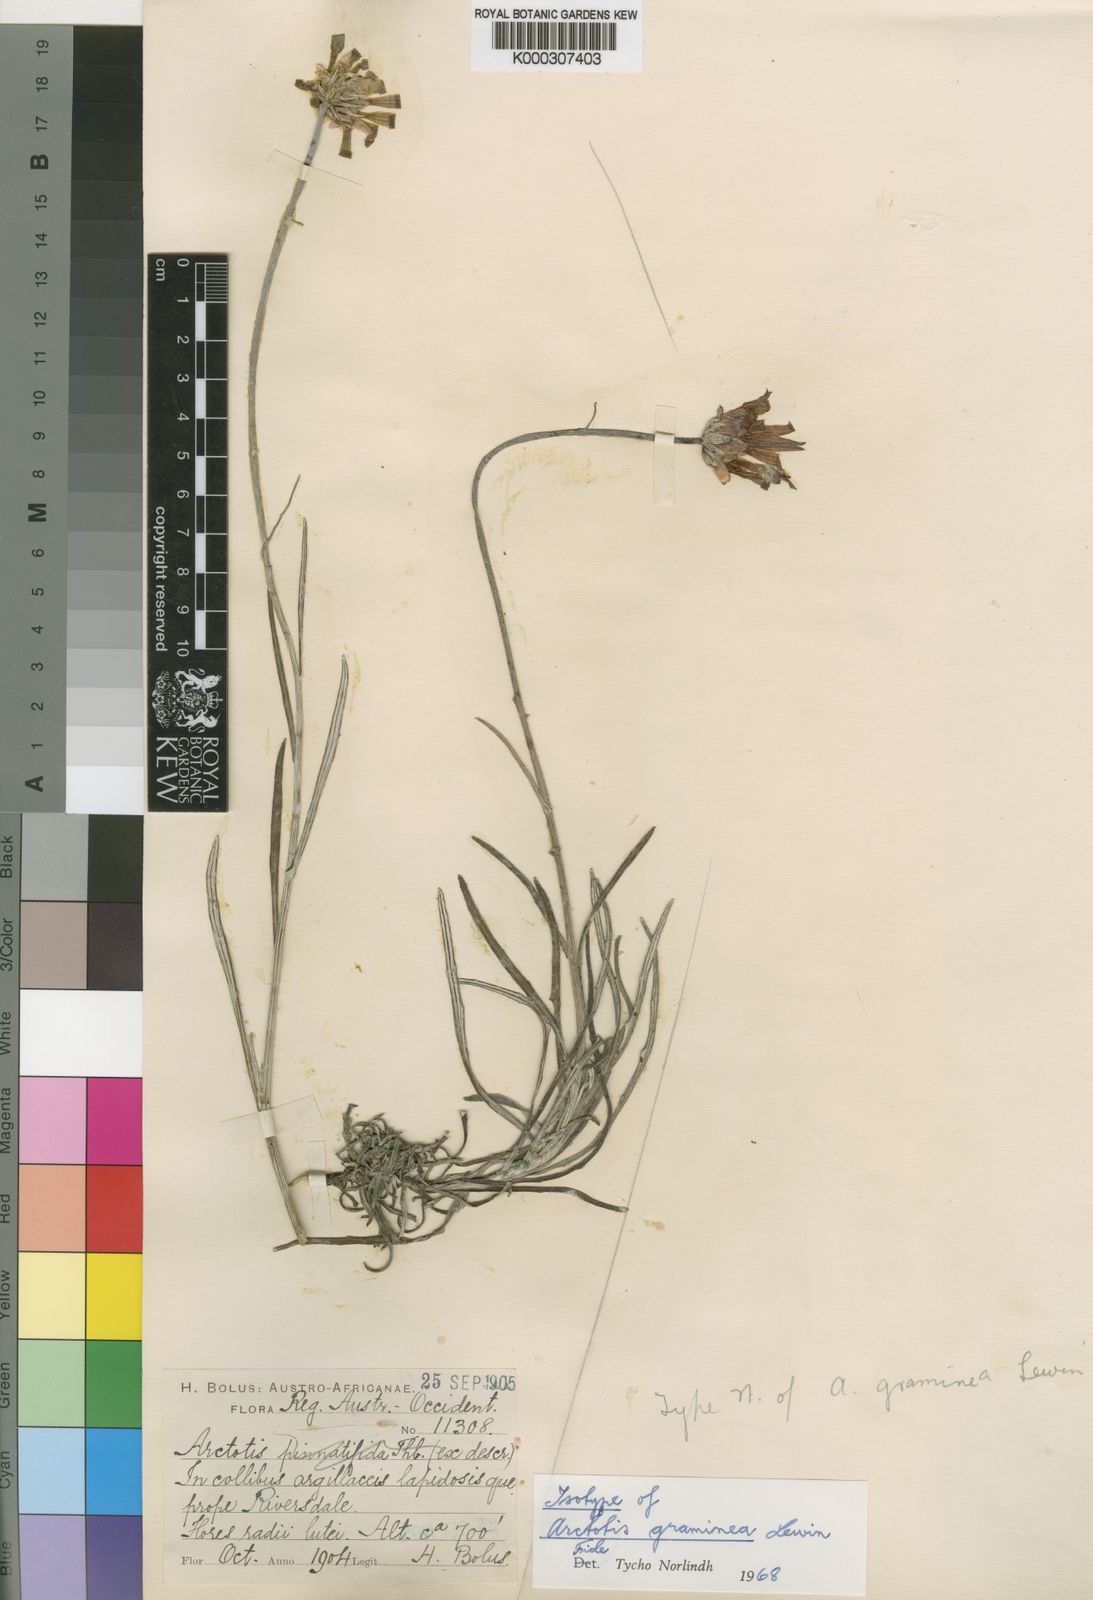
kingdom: Plantae
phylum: Tracheophyta
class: Magnoliopsida
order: Asterales
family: Asteraceae
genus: Arctotis
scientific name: Arctotis virgata
